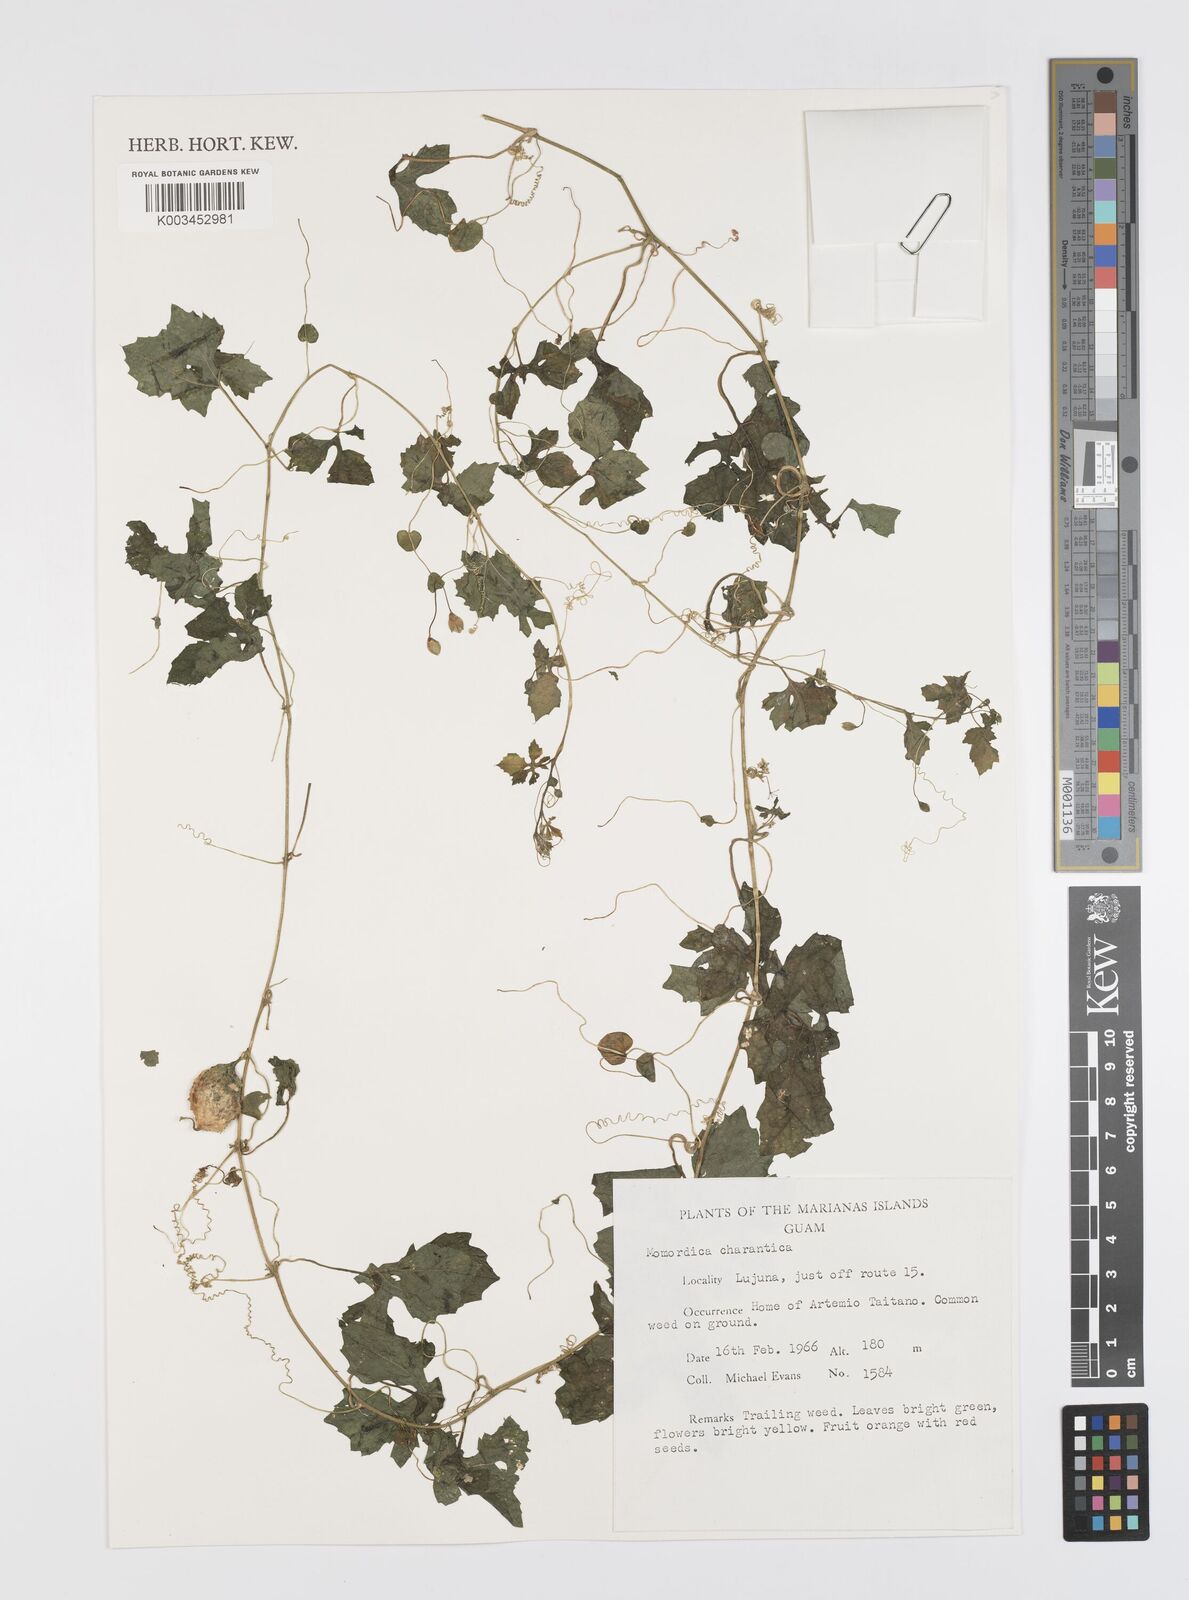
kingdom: Plantae
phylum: Tracheophyta
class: Magnoliopsida
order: Cucurbitales
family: Cucurbitaceae
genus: Momordica
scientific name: Momordica charantia
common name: Balsampear
